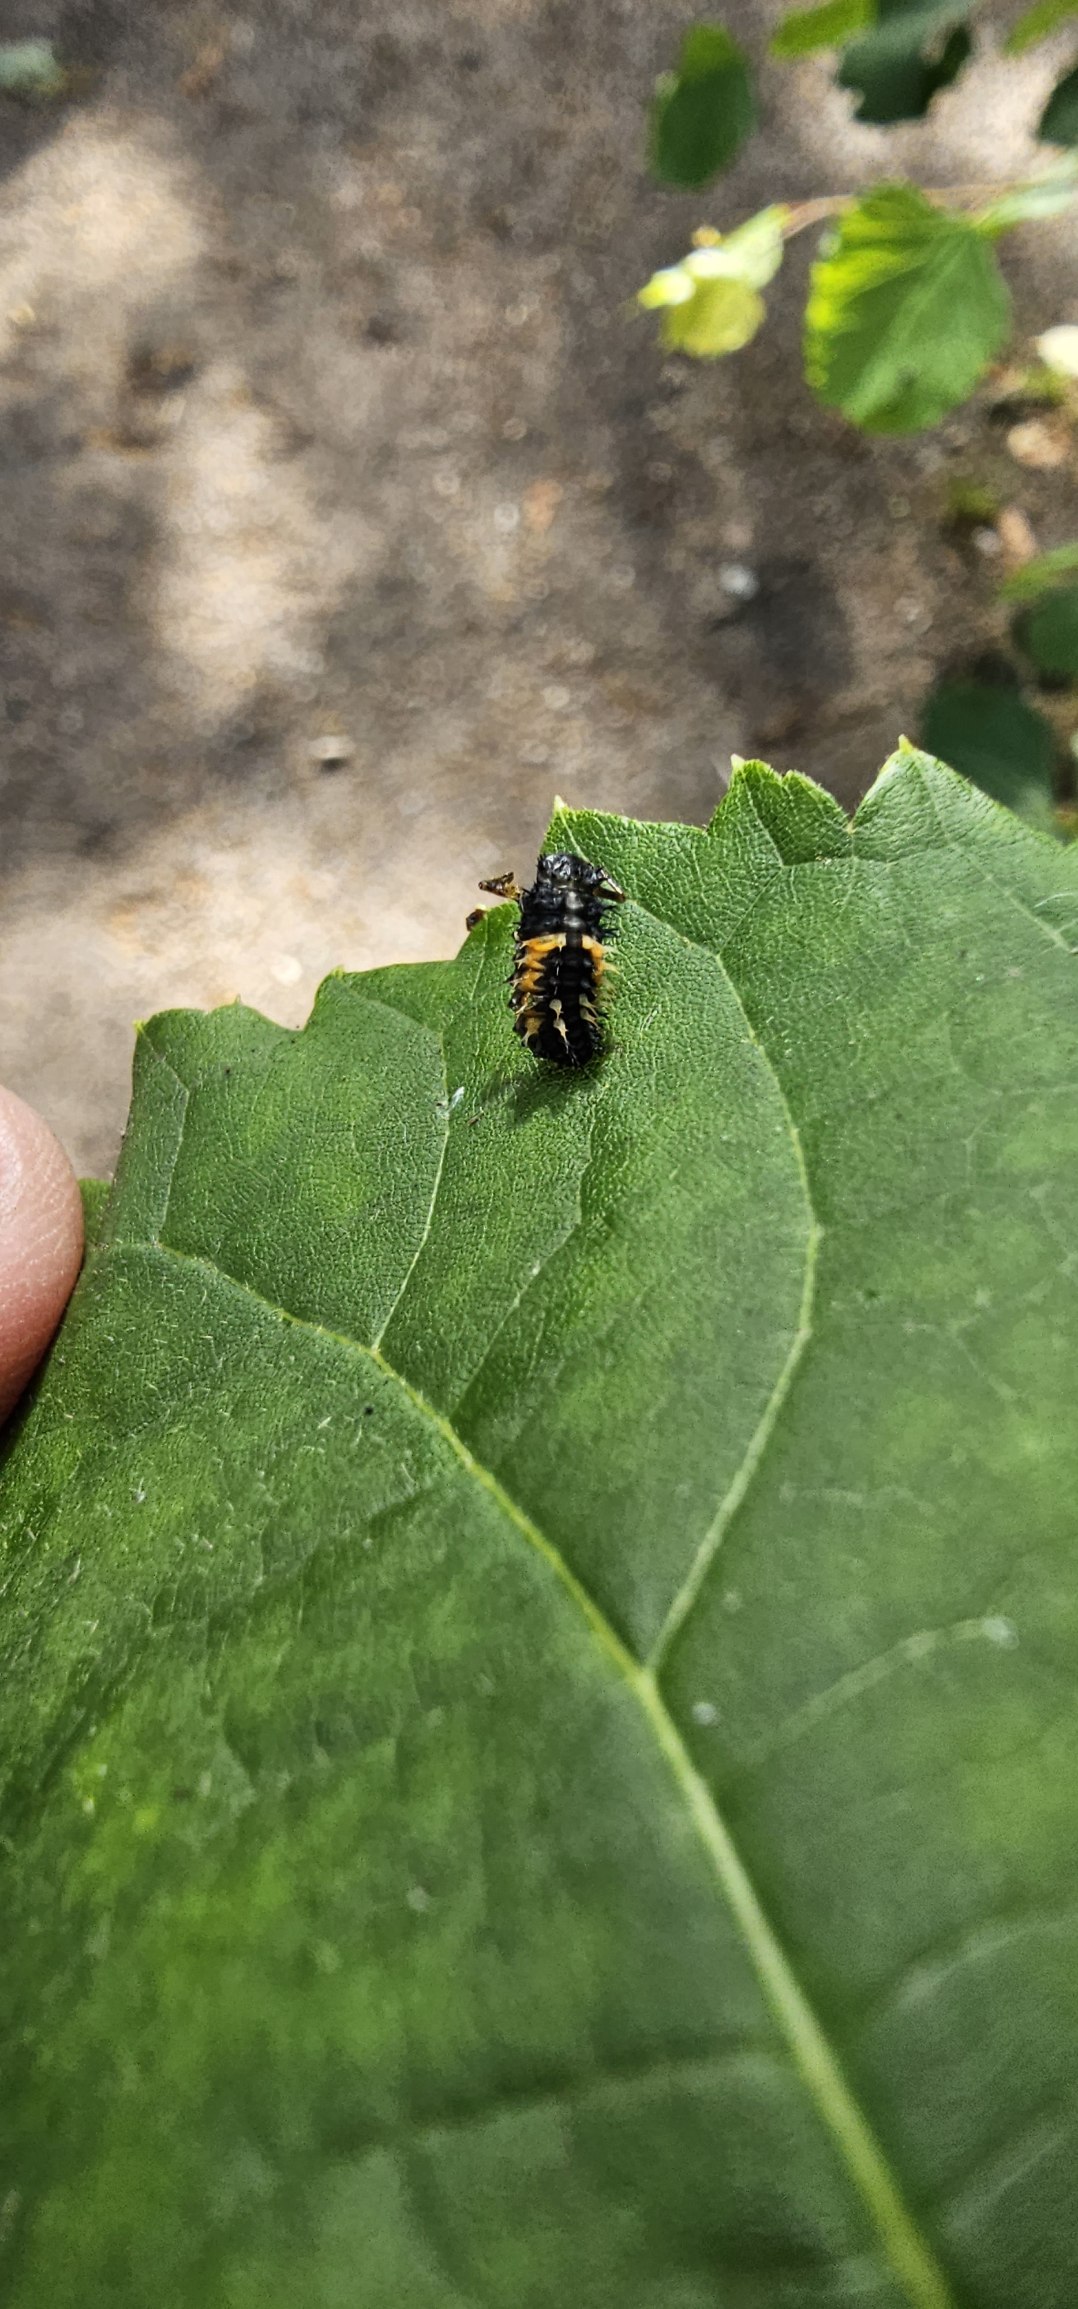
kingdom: Animalia
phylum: Arthropoda
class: Insecta
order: Coleoptera
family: Coccinellidae
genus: Harmonia
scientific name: Harmonia axyridis
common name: Harlekinmariehøne
